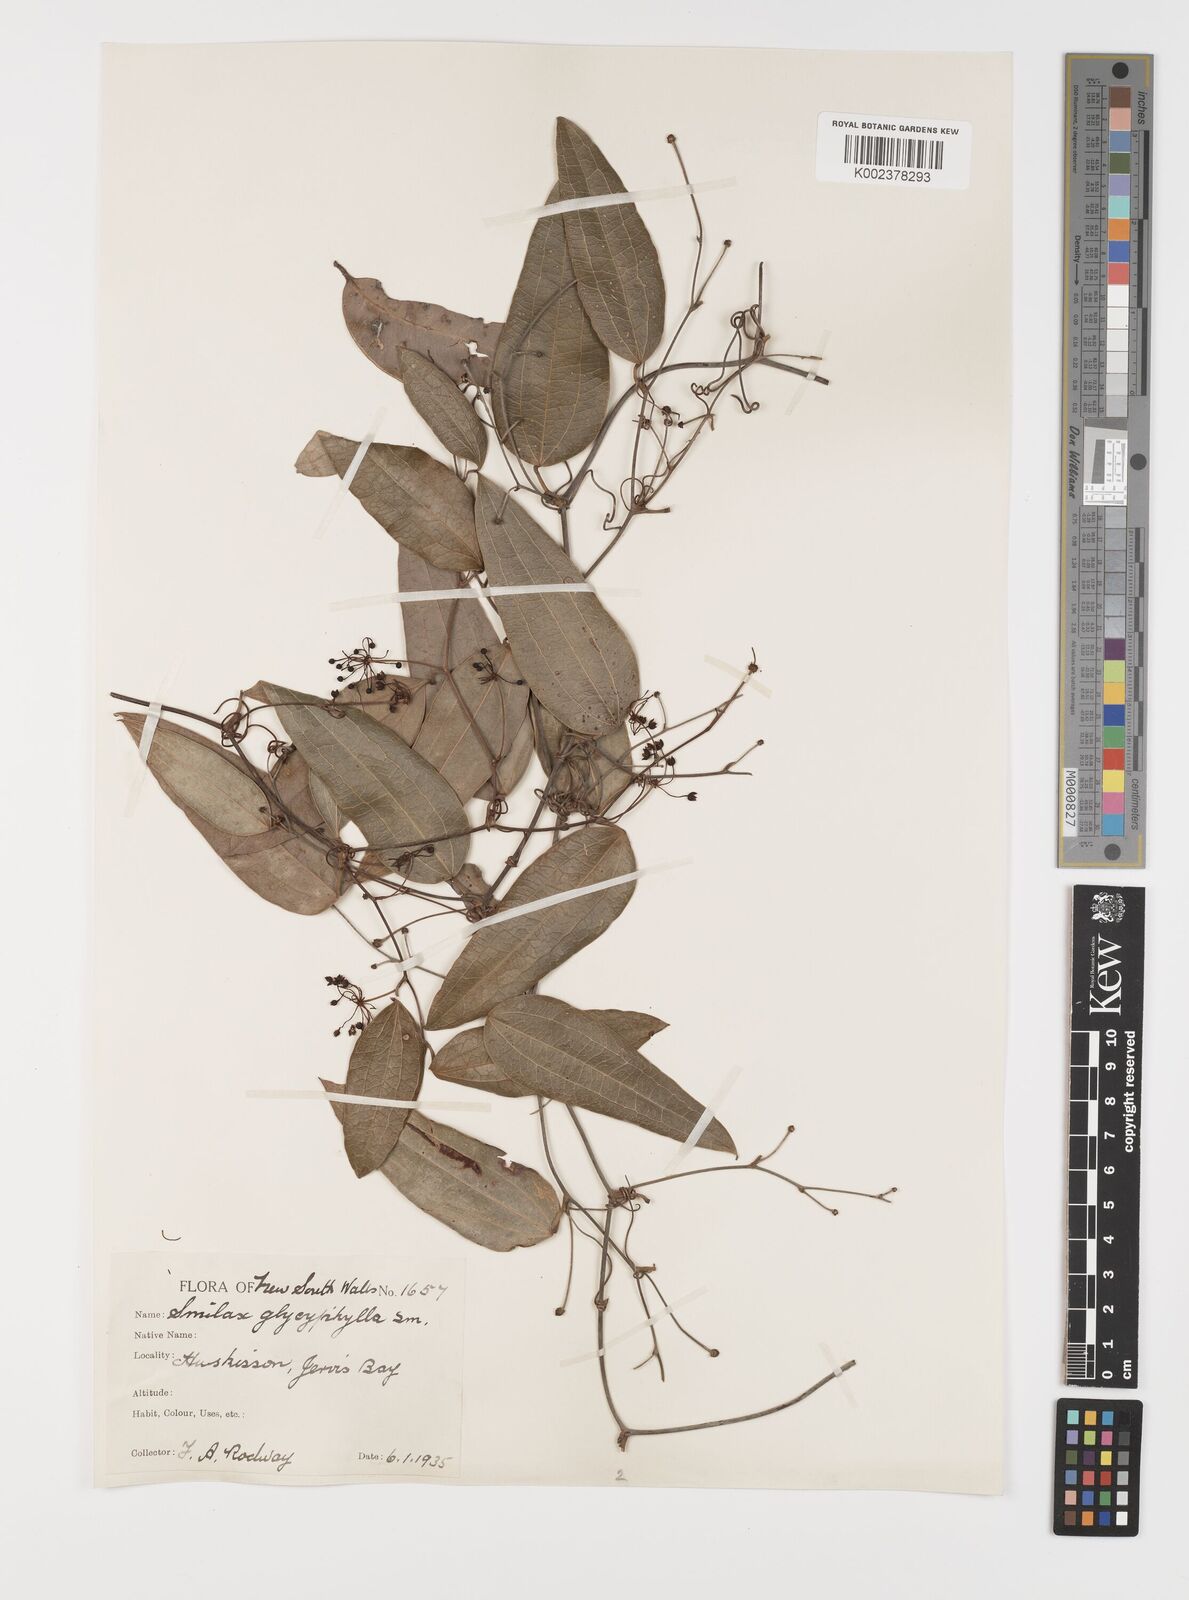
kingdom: Plantae
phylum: Tracheophyta
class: Liliopsida
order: Liliales
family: Smilacaceae
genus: Smilax
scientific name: Smilax
